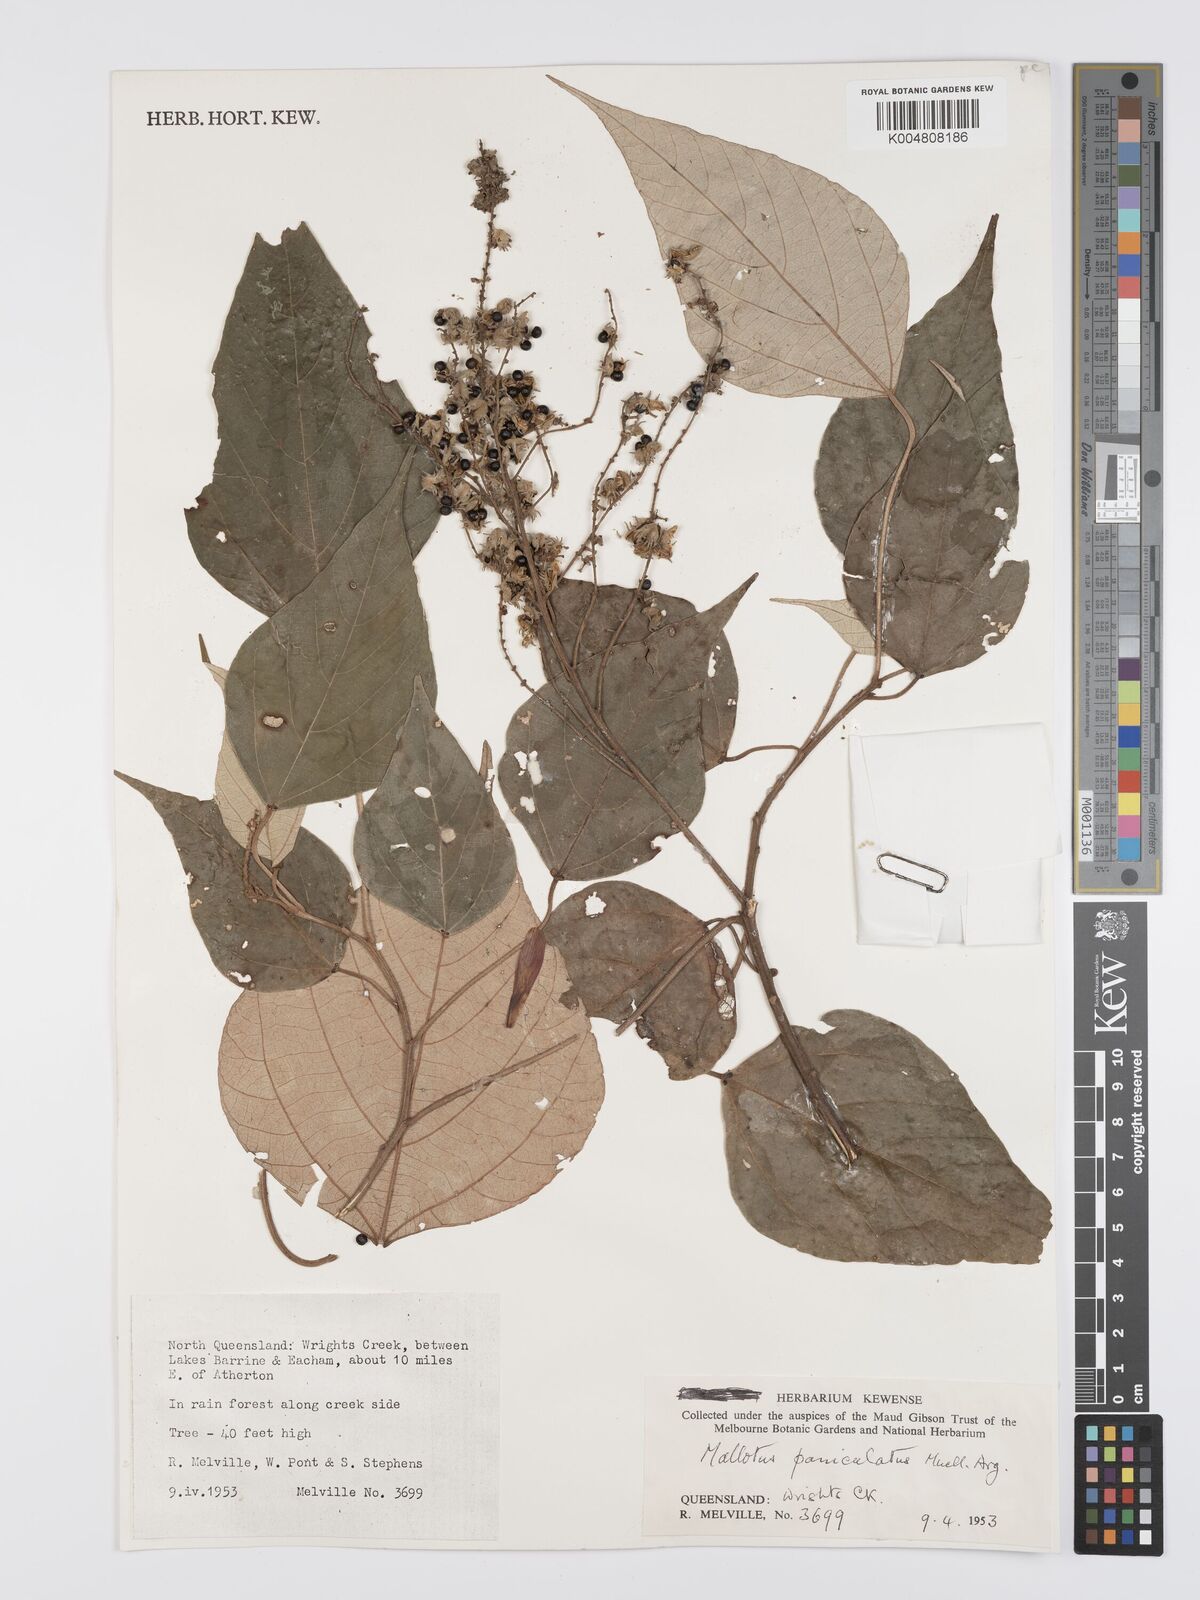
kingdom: Plantae
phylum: Tracheophyta
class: Magnoliopsida
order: Malpighiales
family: Euphorbiaceae
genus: Mallotus
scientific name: Mallotus paniculatus
